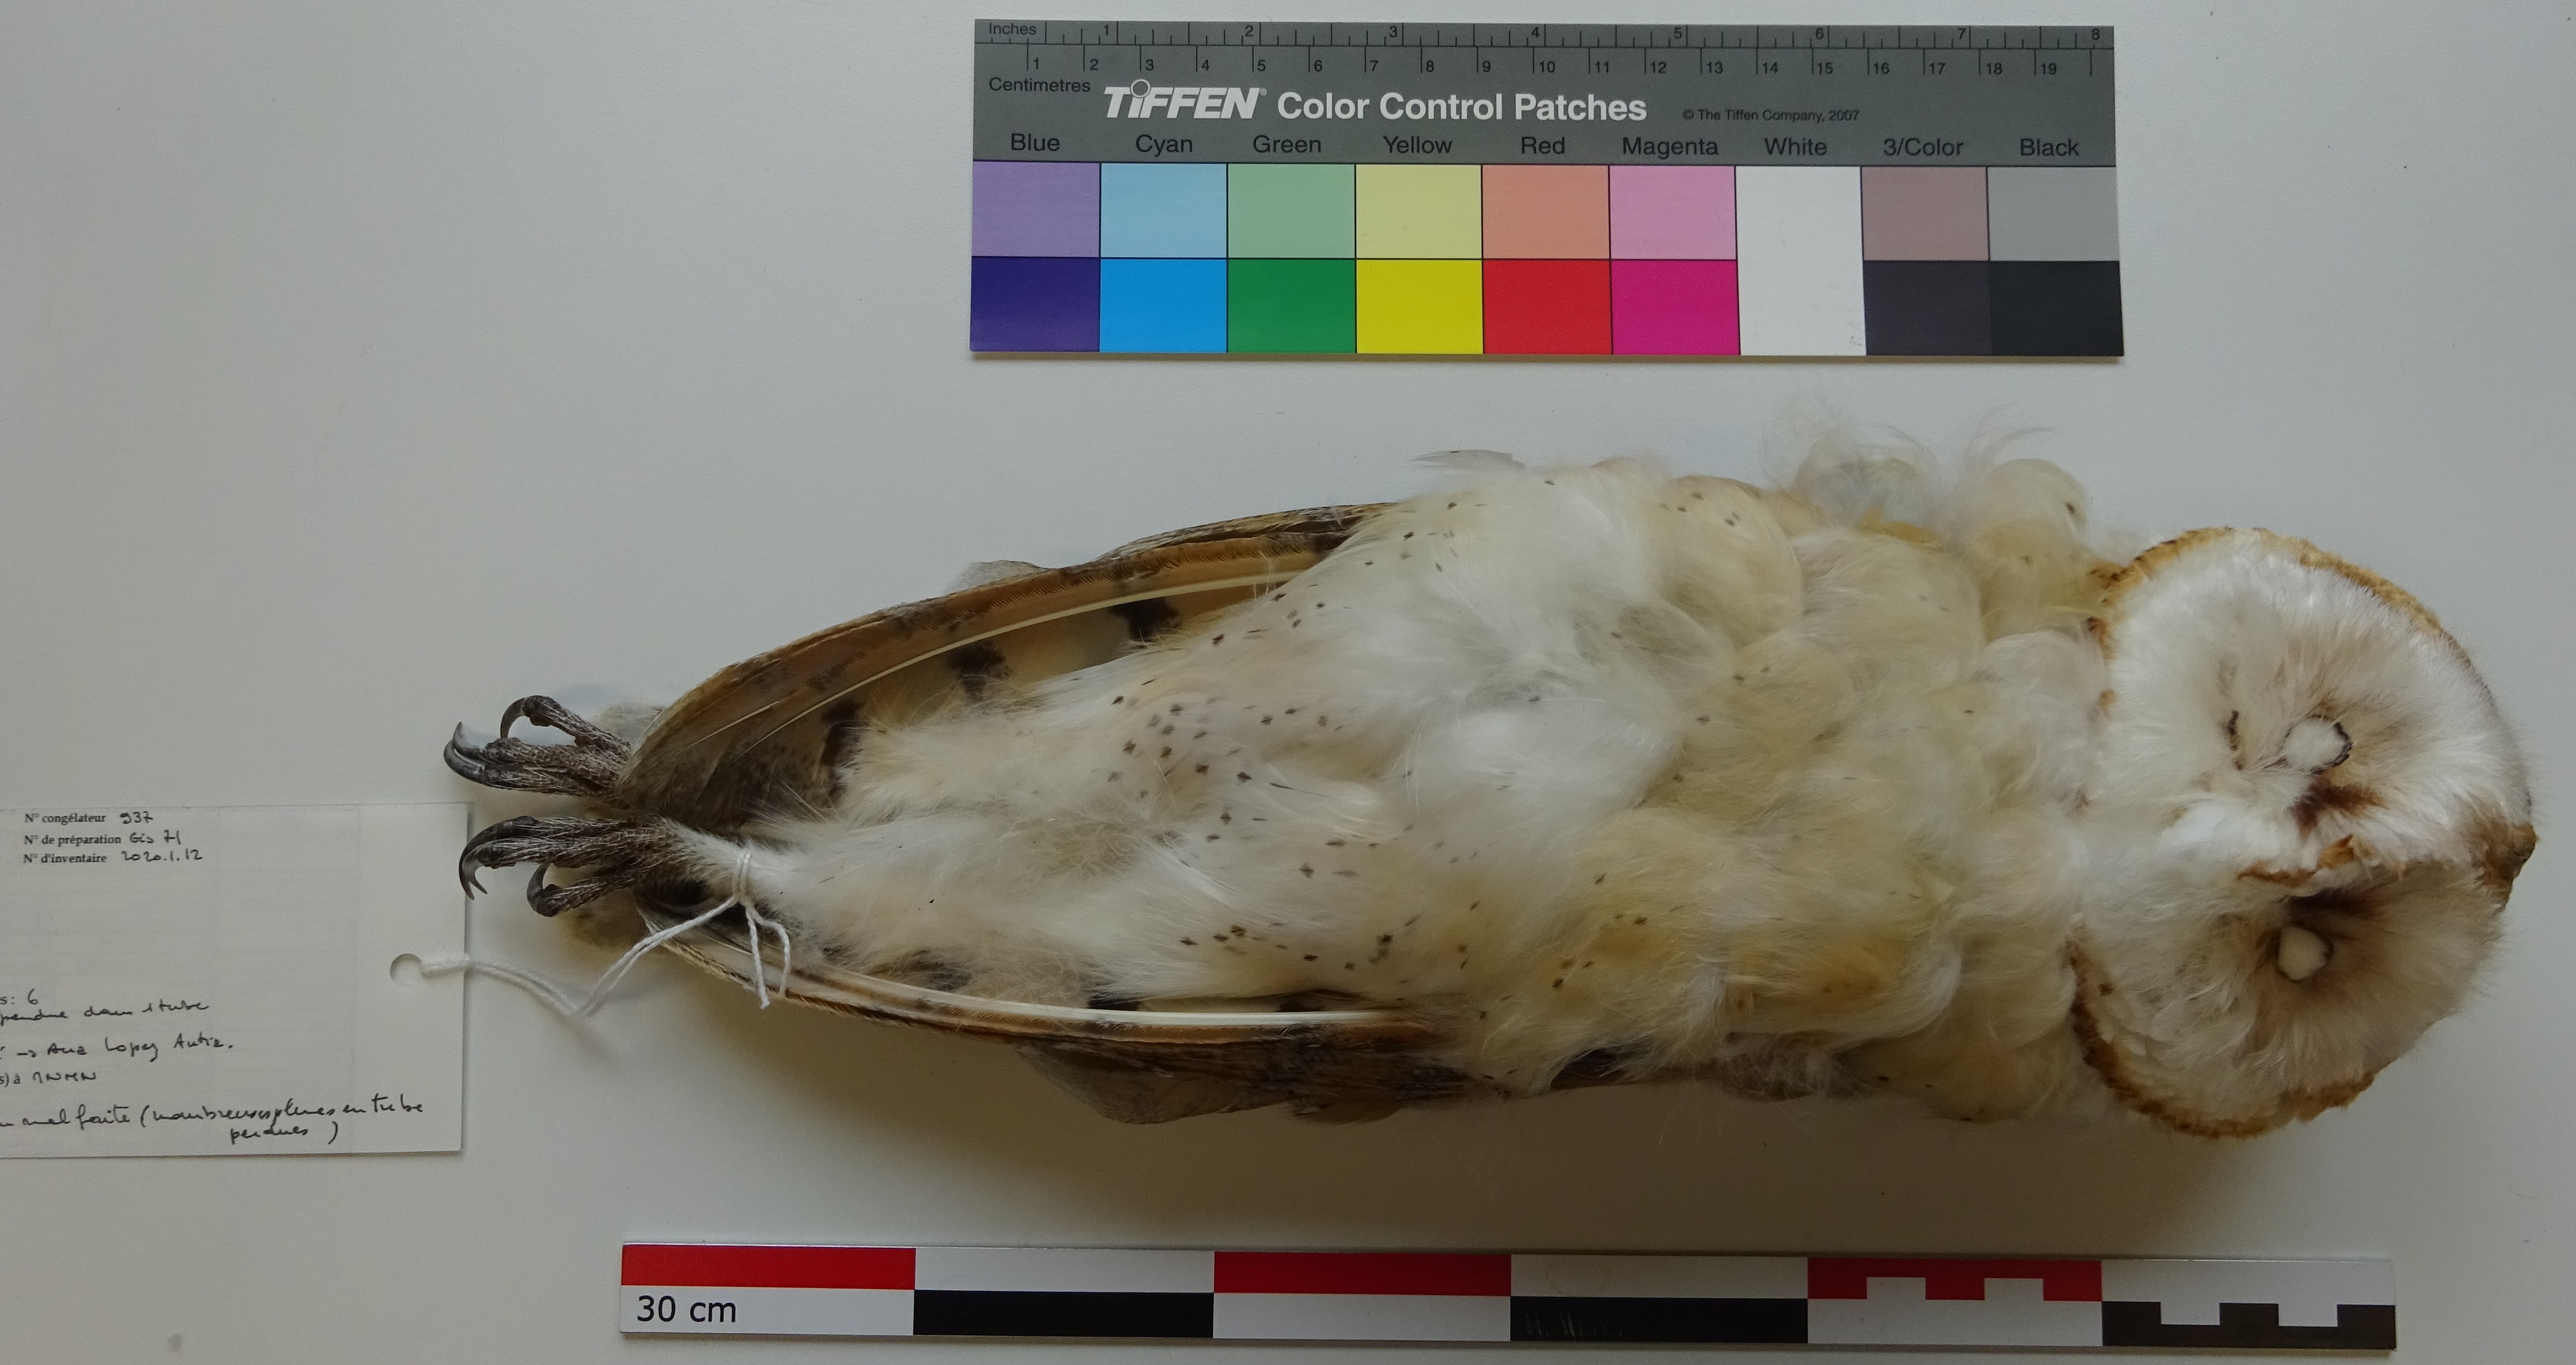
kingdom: Animalia
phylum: Chordata
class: Aves
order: Strigiformes
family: Tytonidae
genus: Tyto
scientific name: Tyto alba
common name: Barn owl
